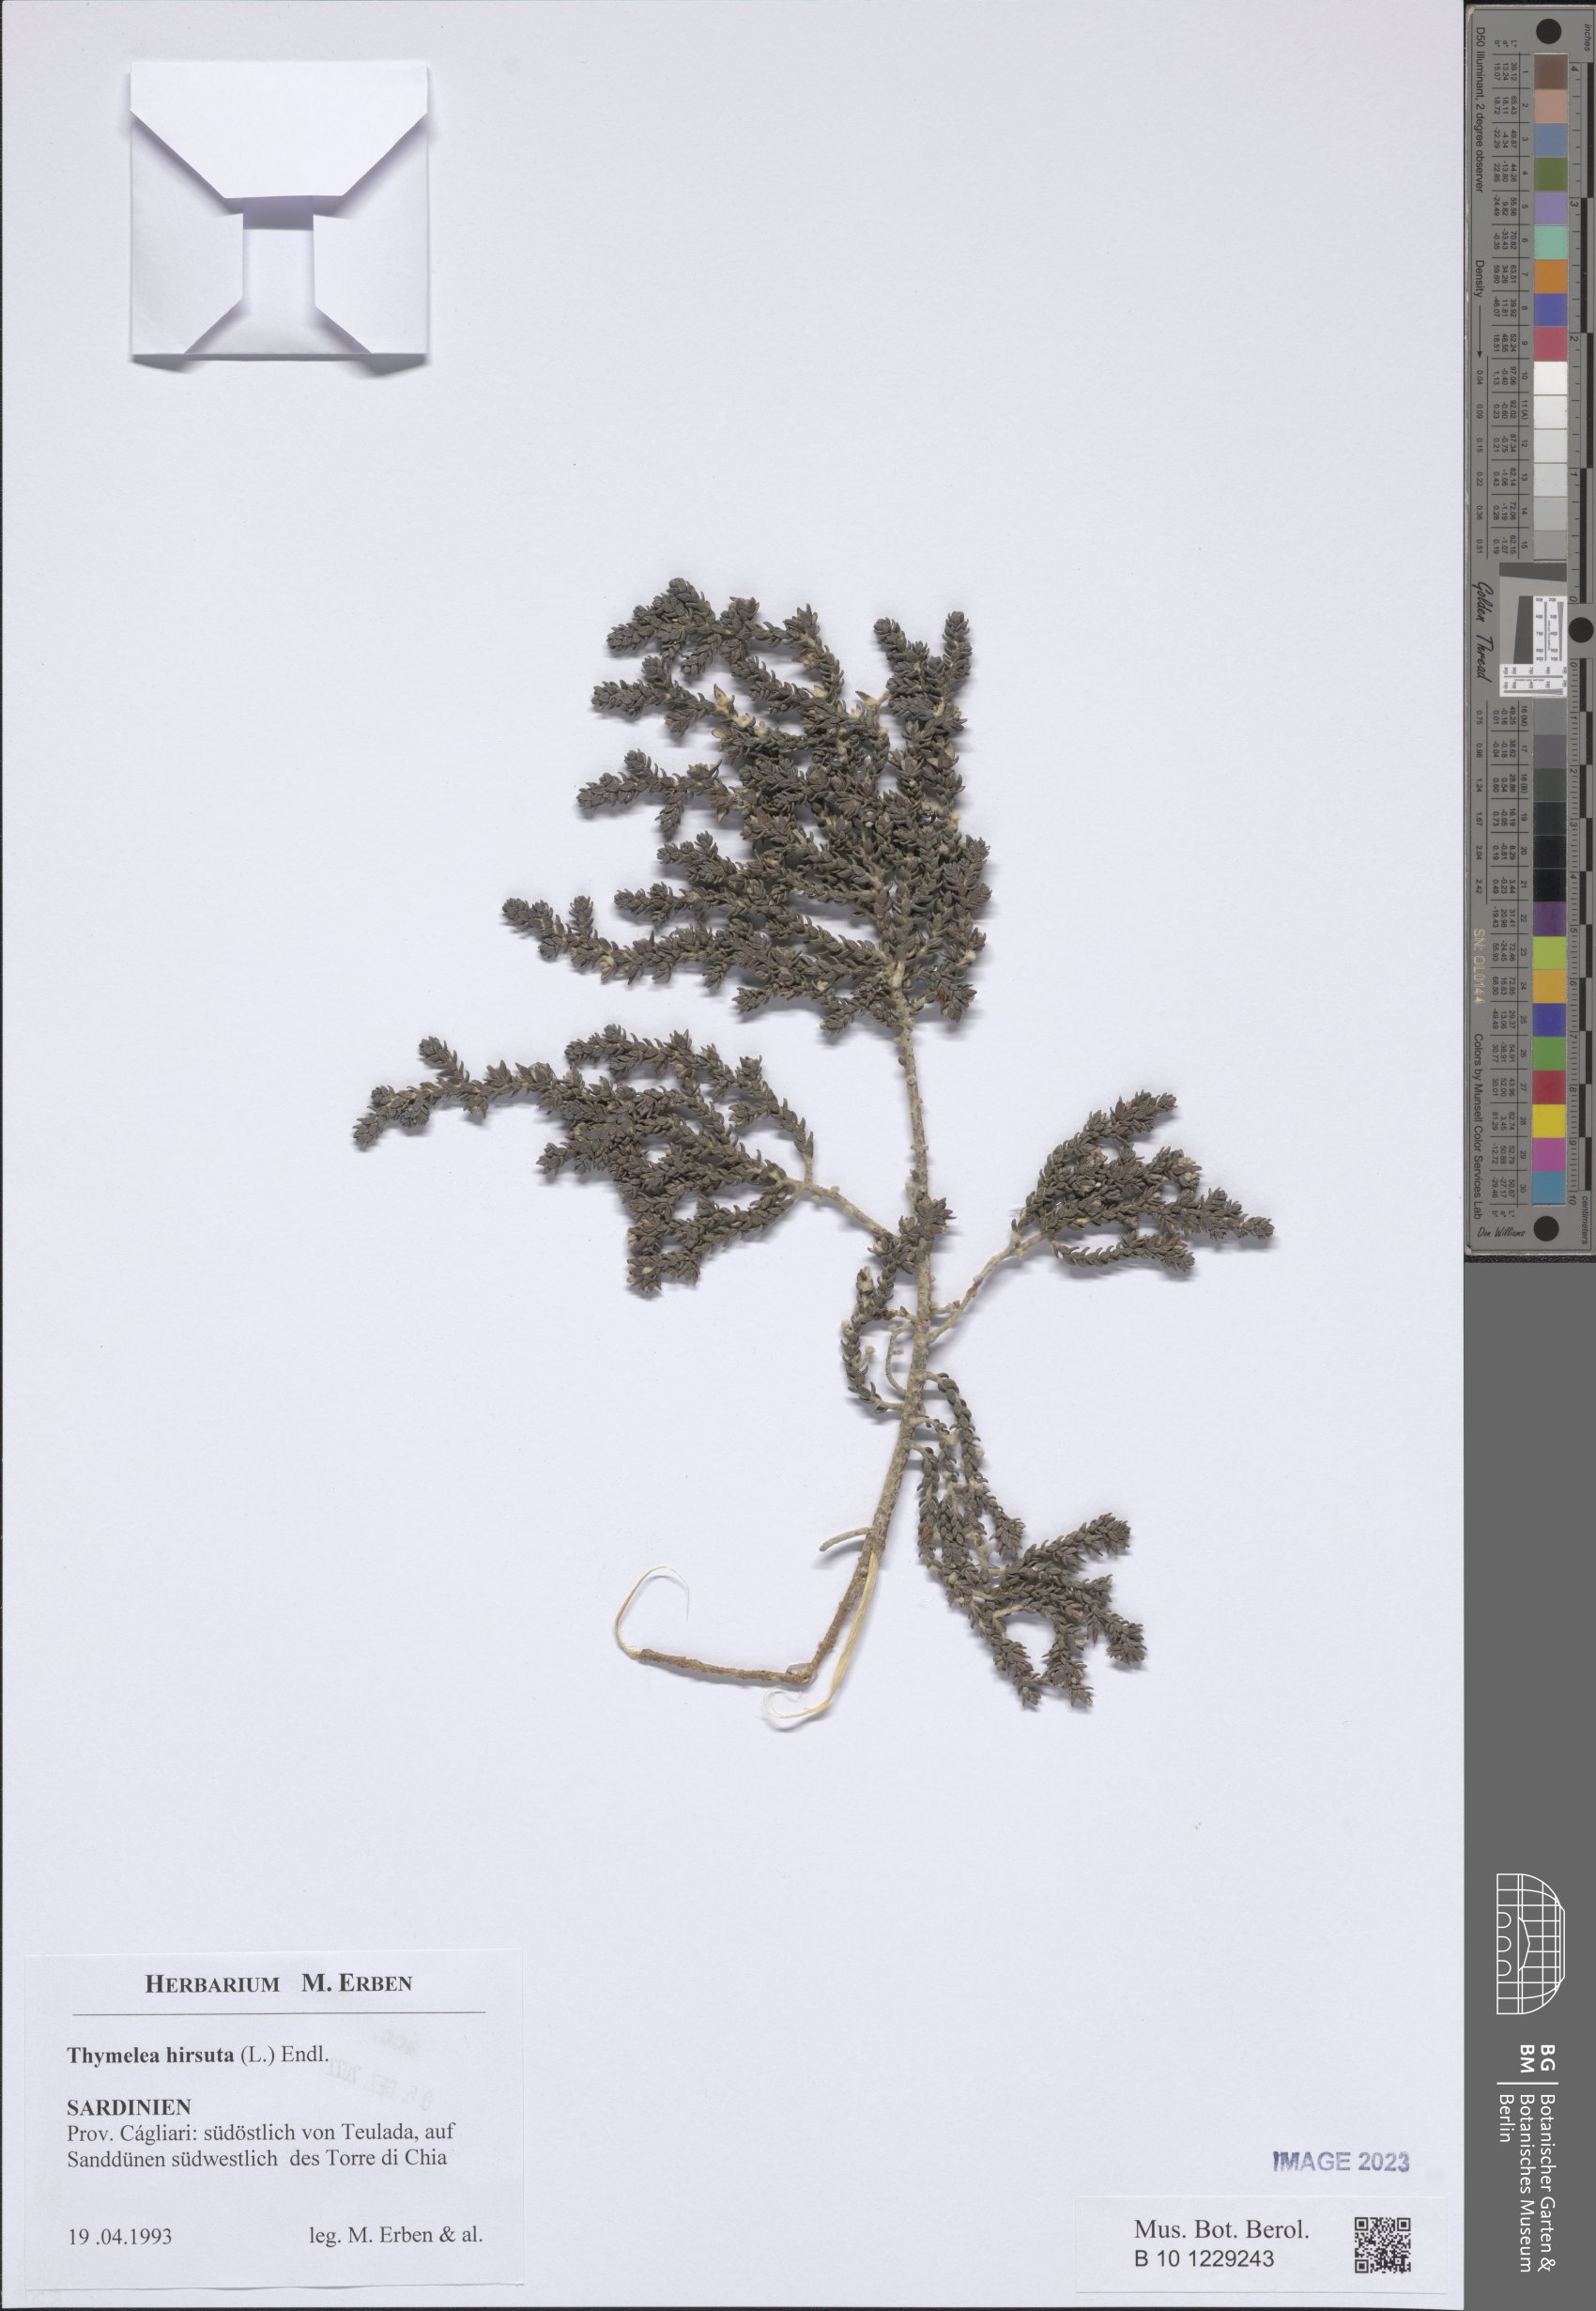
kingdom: Plantae
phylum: Tracheophyta
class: Magnoliopsida
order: Malvales
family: Thymelaeaceae
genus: Thymelaea
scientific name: Thymelaea hirsuta
